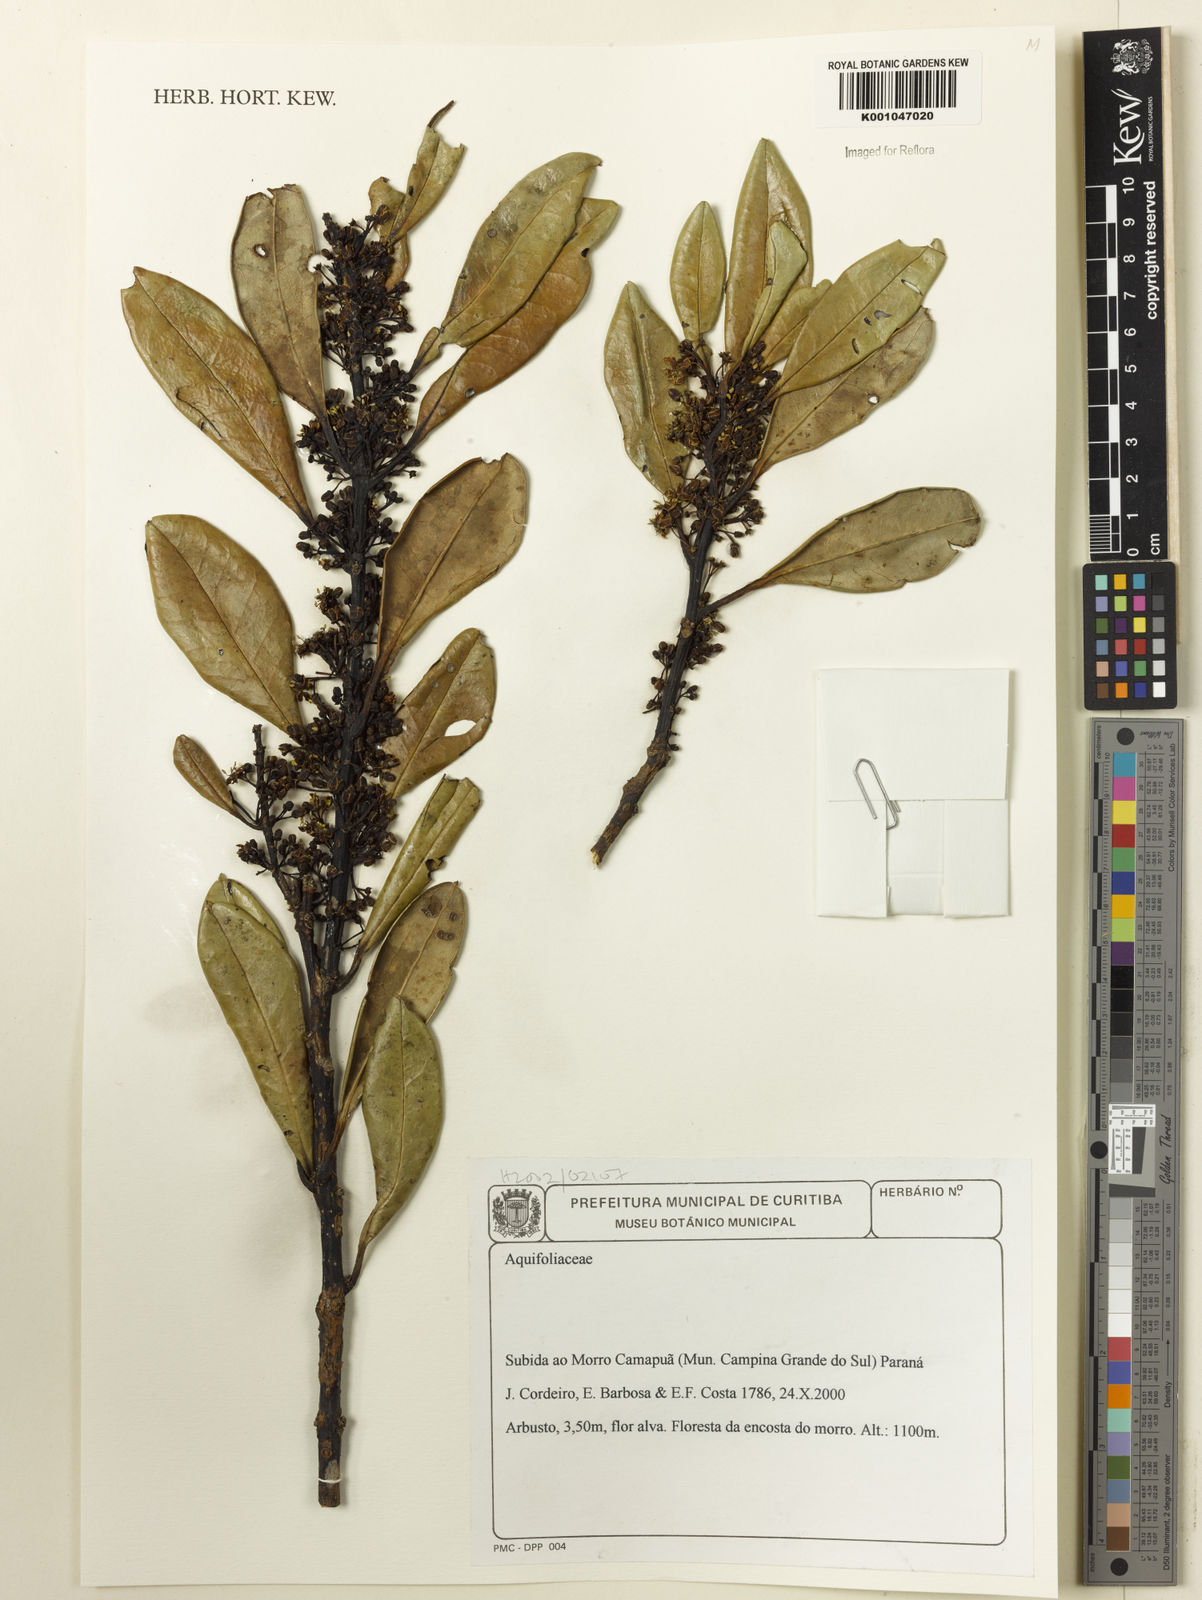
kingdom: Plantae
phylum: Tracheophyta
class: Magnoliopsida
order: Aquifoliales
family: Aquifoliaceae
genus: Ilex
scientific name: Ilex
